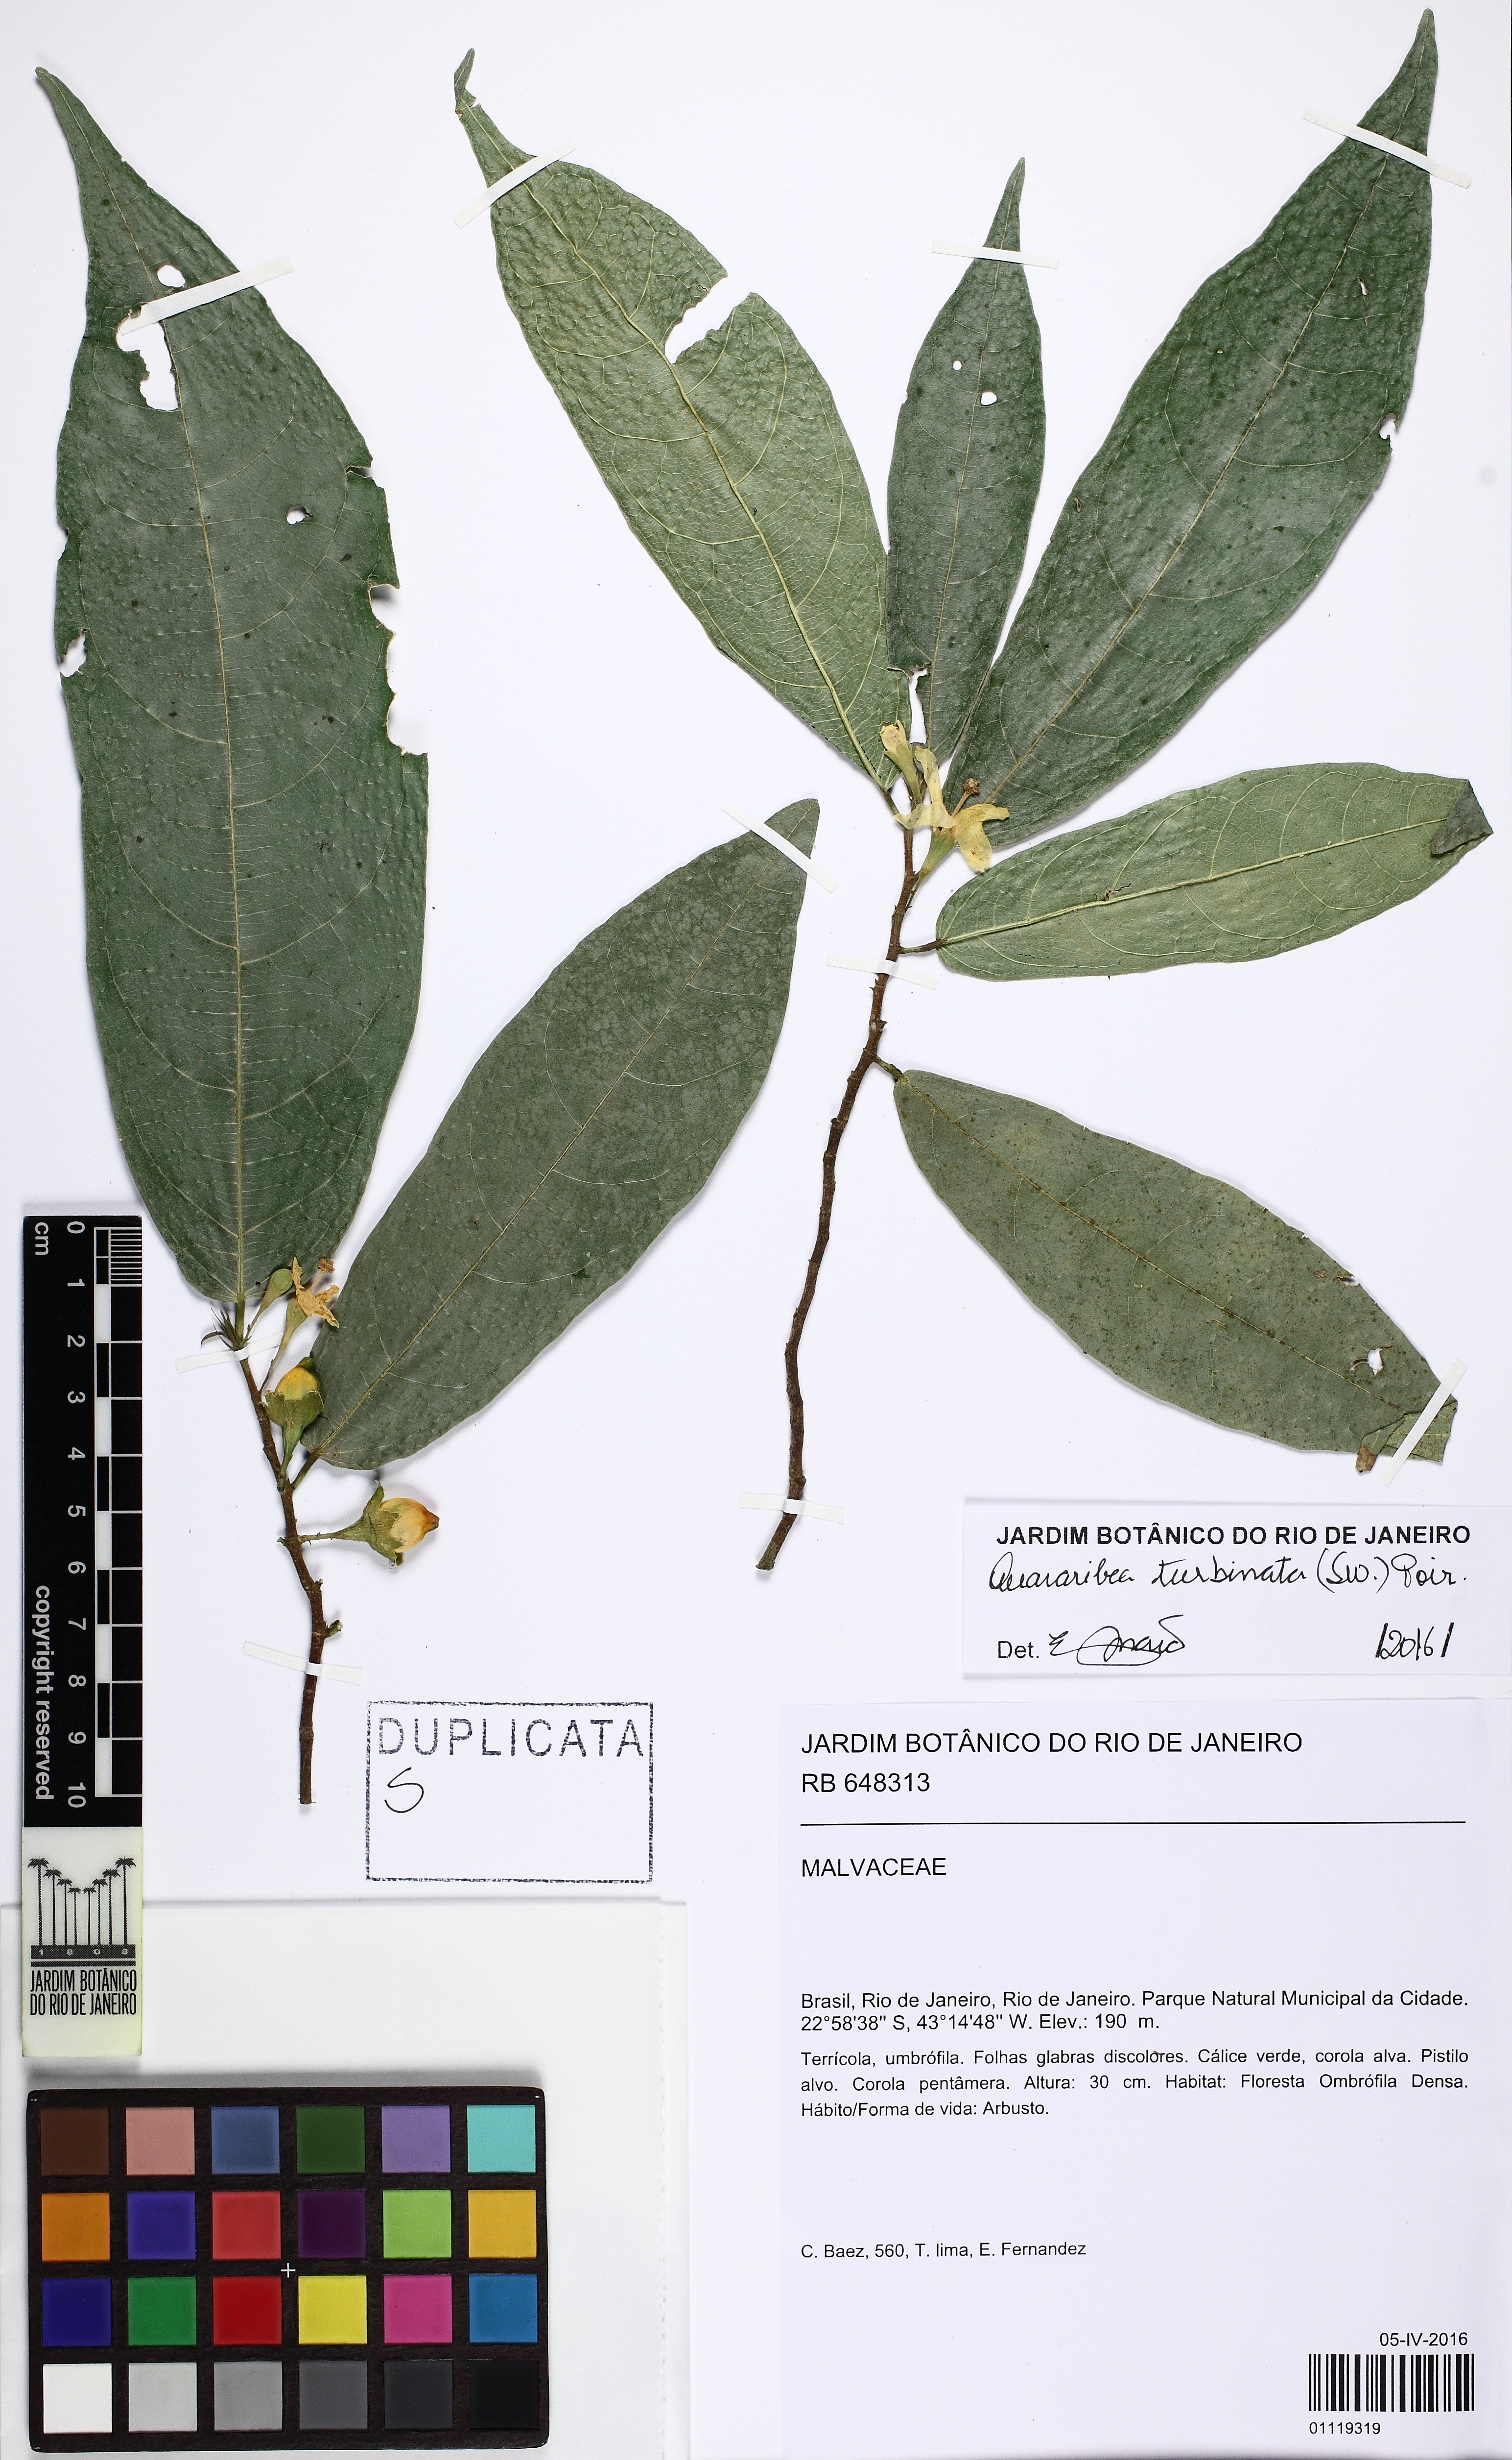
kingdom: Plantae
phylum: Tracheophyta
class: Magnoliopsida
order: Malvales
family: Malvaceae
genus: Quararibea
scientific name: Quararibea angustifolia
